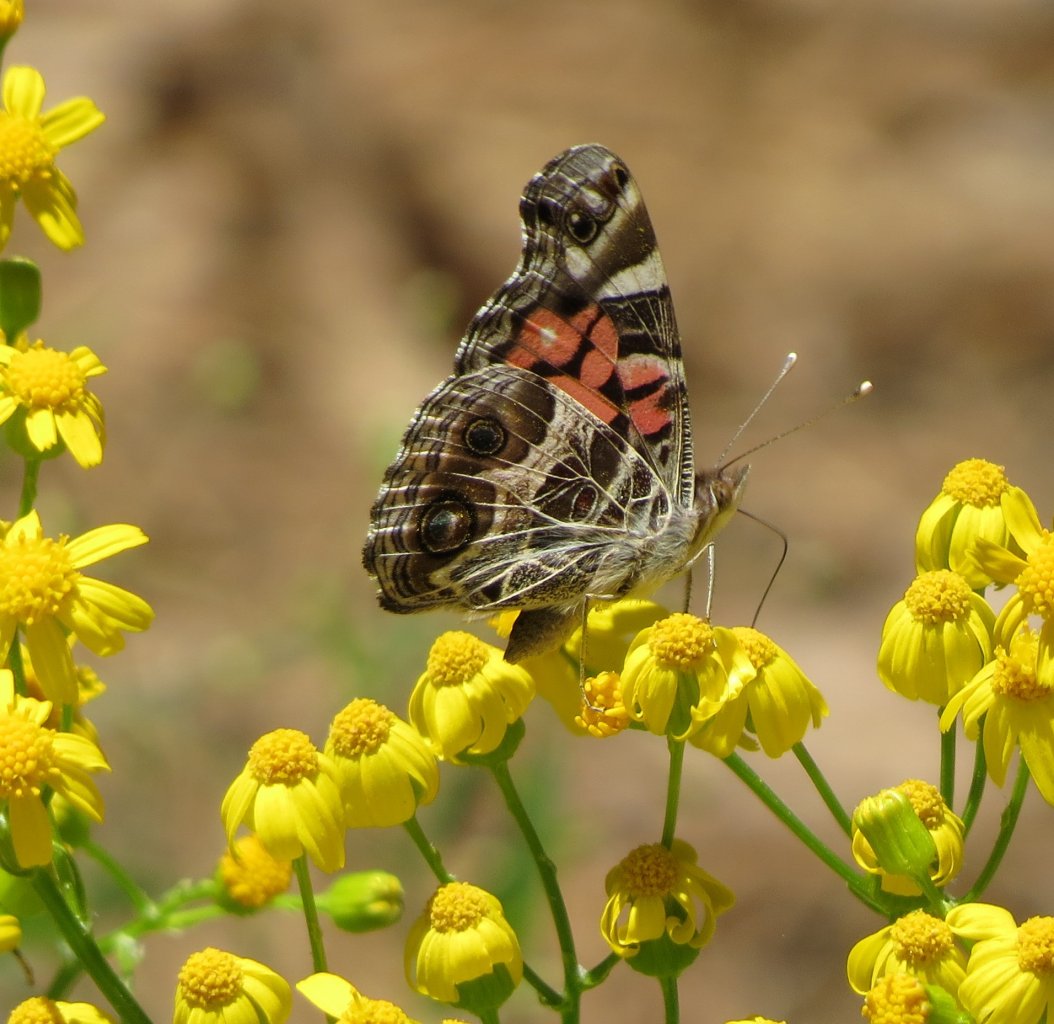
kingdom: Animalia
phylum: Arthropoda
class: Insecta
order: Lepidoptera
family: Nymphalidae
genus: Vanessa
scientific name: Vanessa virginiensis
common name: American Lady
